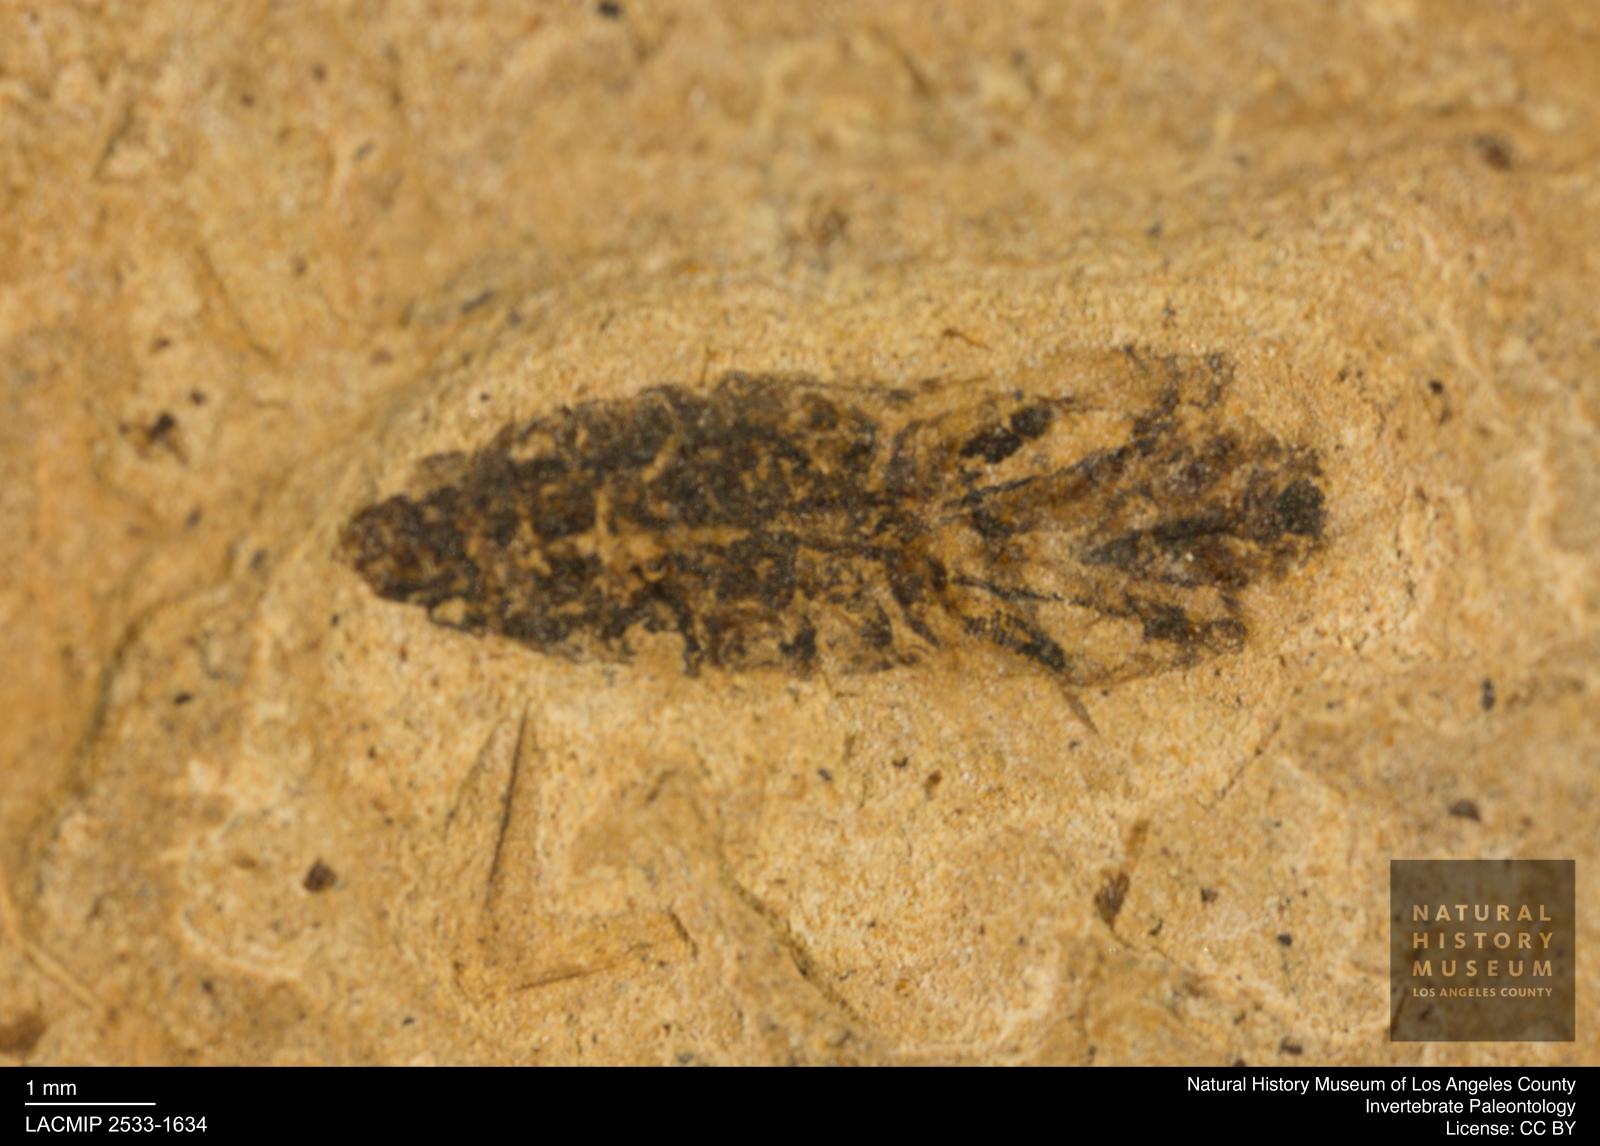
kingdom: Animalia
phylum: Arthropoda
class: Insecta
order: Hemiptera
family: Notonectidae
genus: Notonecta
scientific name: Notonecta
